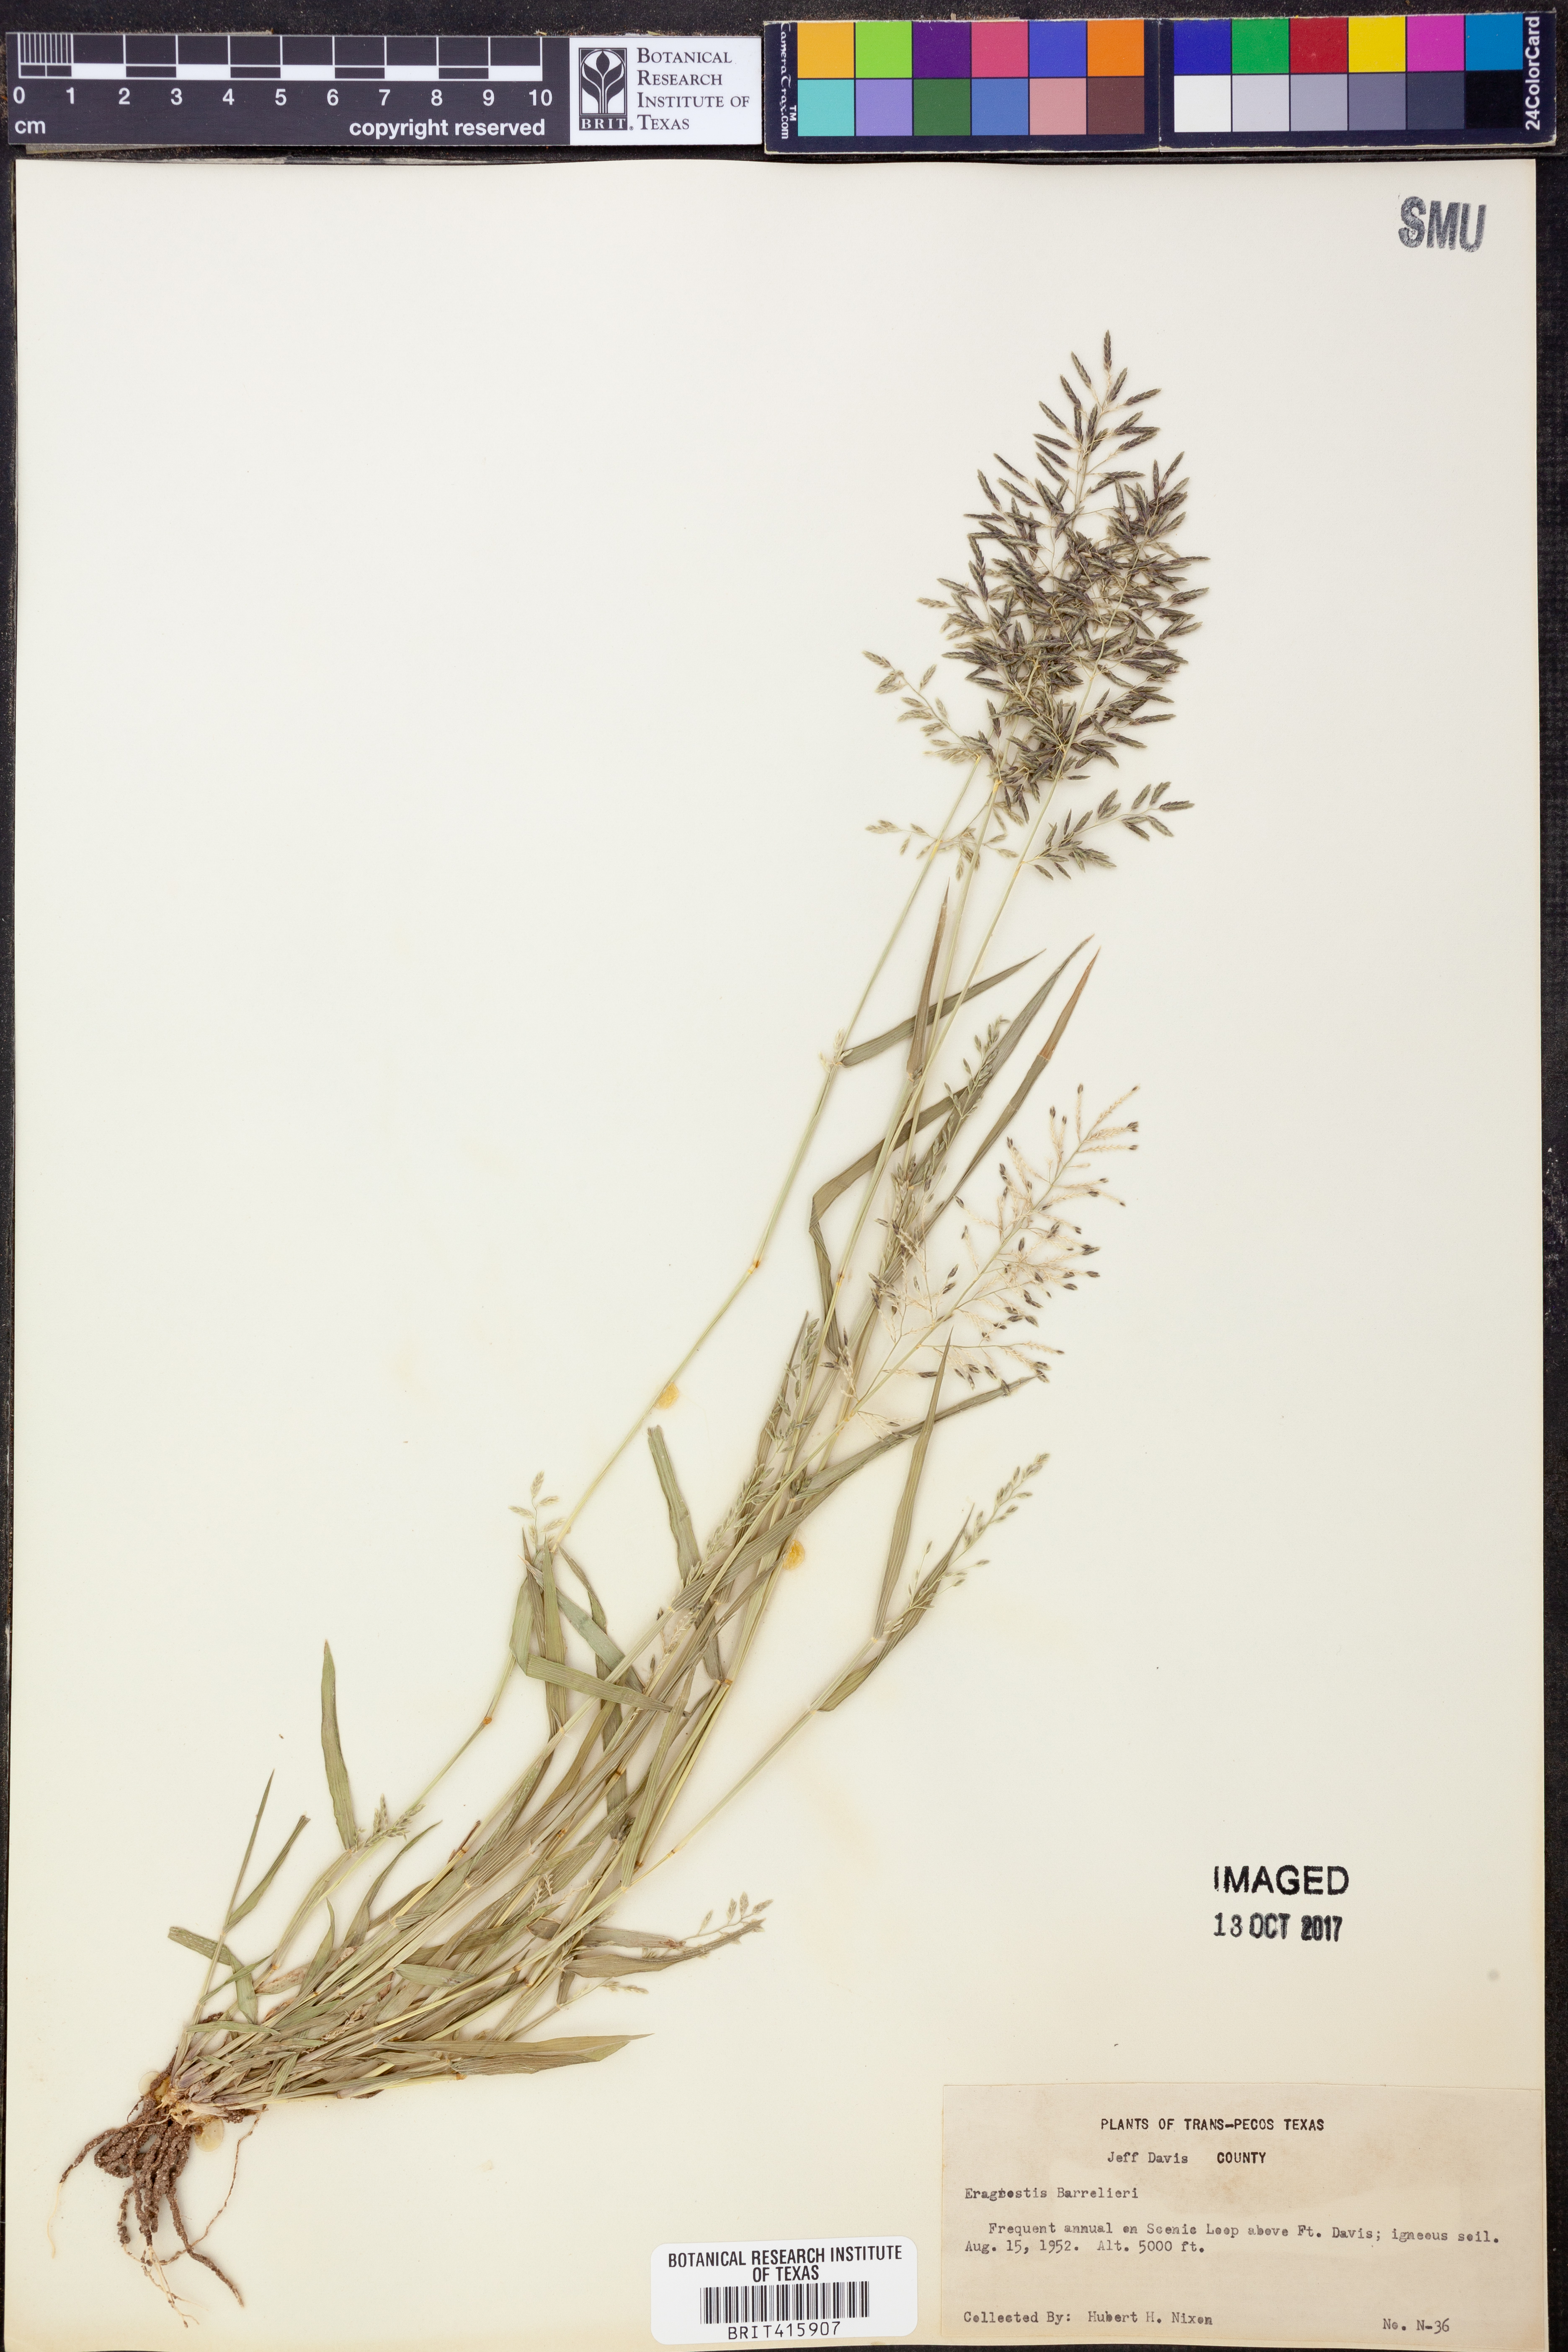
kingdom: Plantae
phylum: Tracheophyta
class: Liliopsida
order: Poales
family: Poaceae
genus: Eragrostis
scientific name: Eragrostis barrelieri
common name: Mediterranean lovegrass
